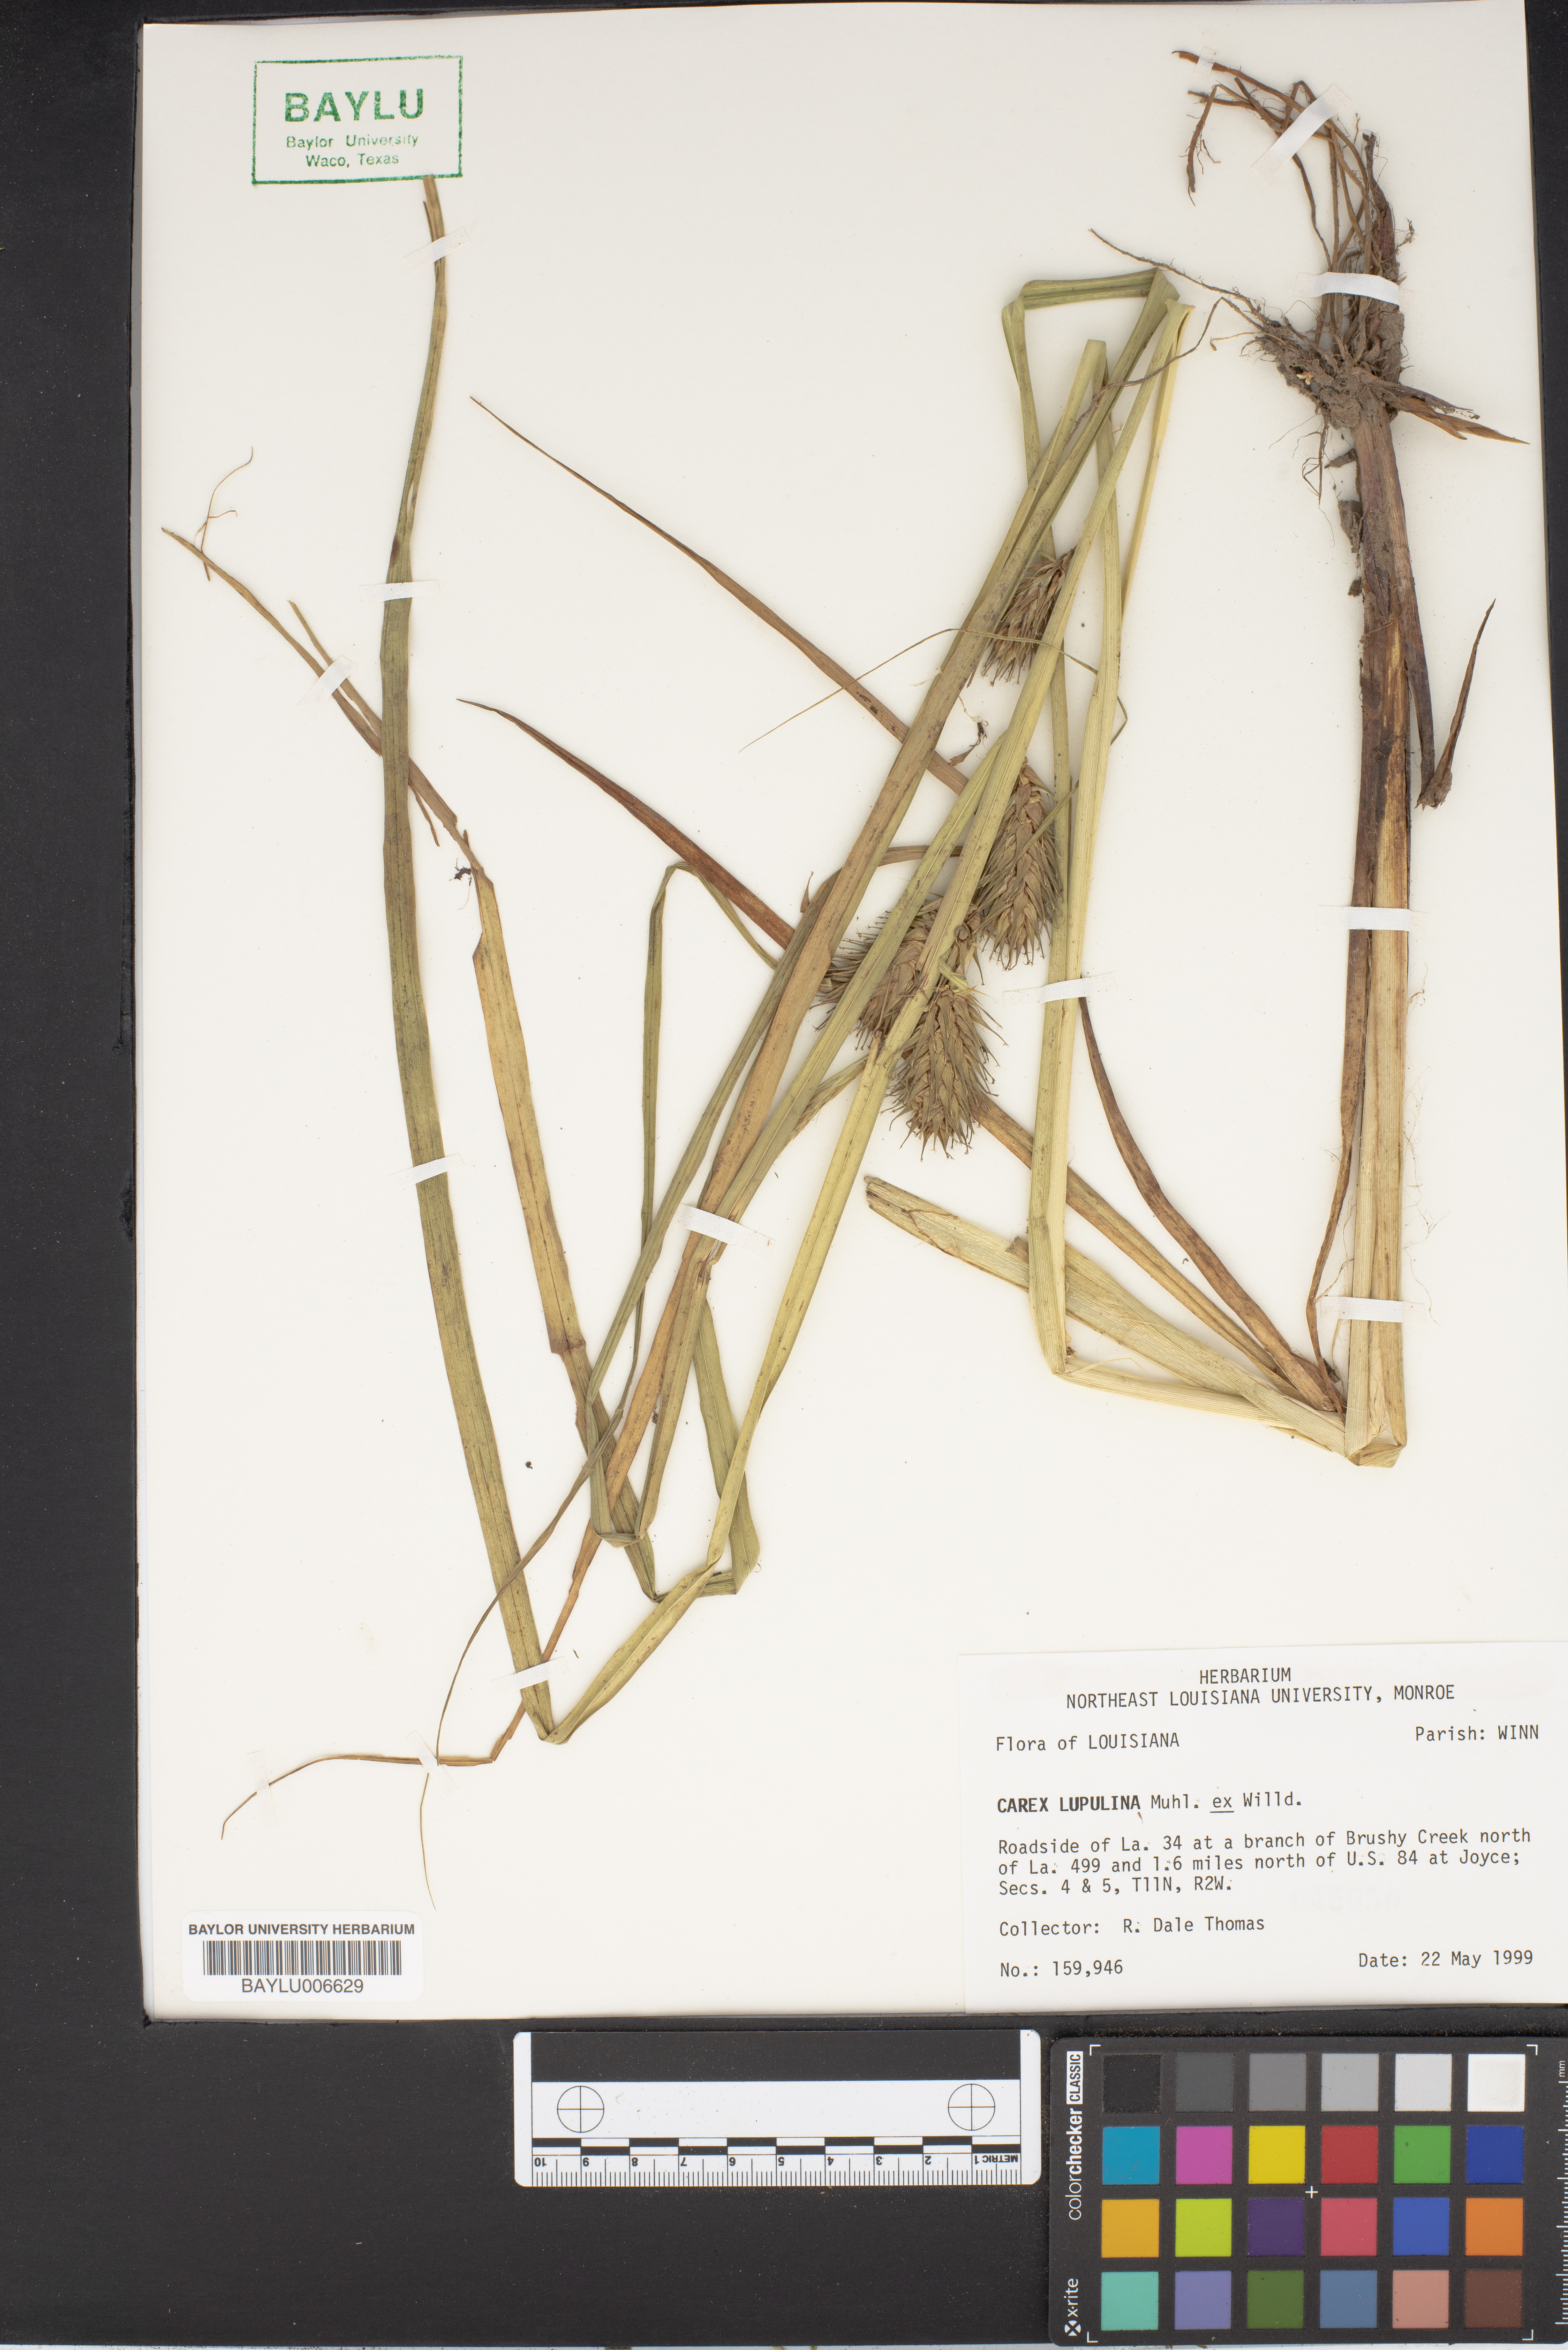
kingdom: Plantae
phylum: Tracheophyta
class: Liliopsida
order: Poales
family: Cyperaceae
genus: Carex
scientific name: Carex lupulina
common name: Hop sedge
